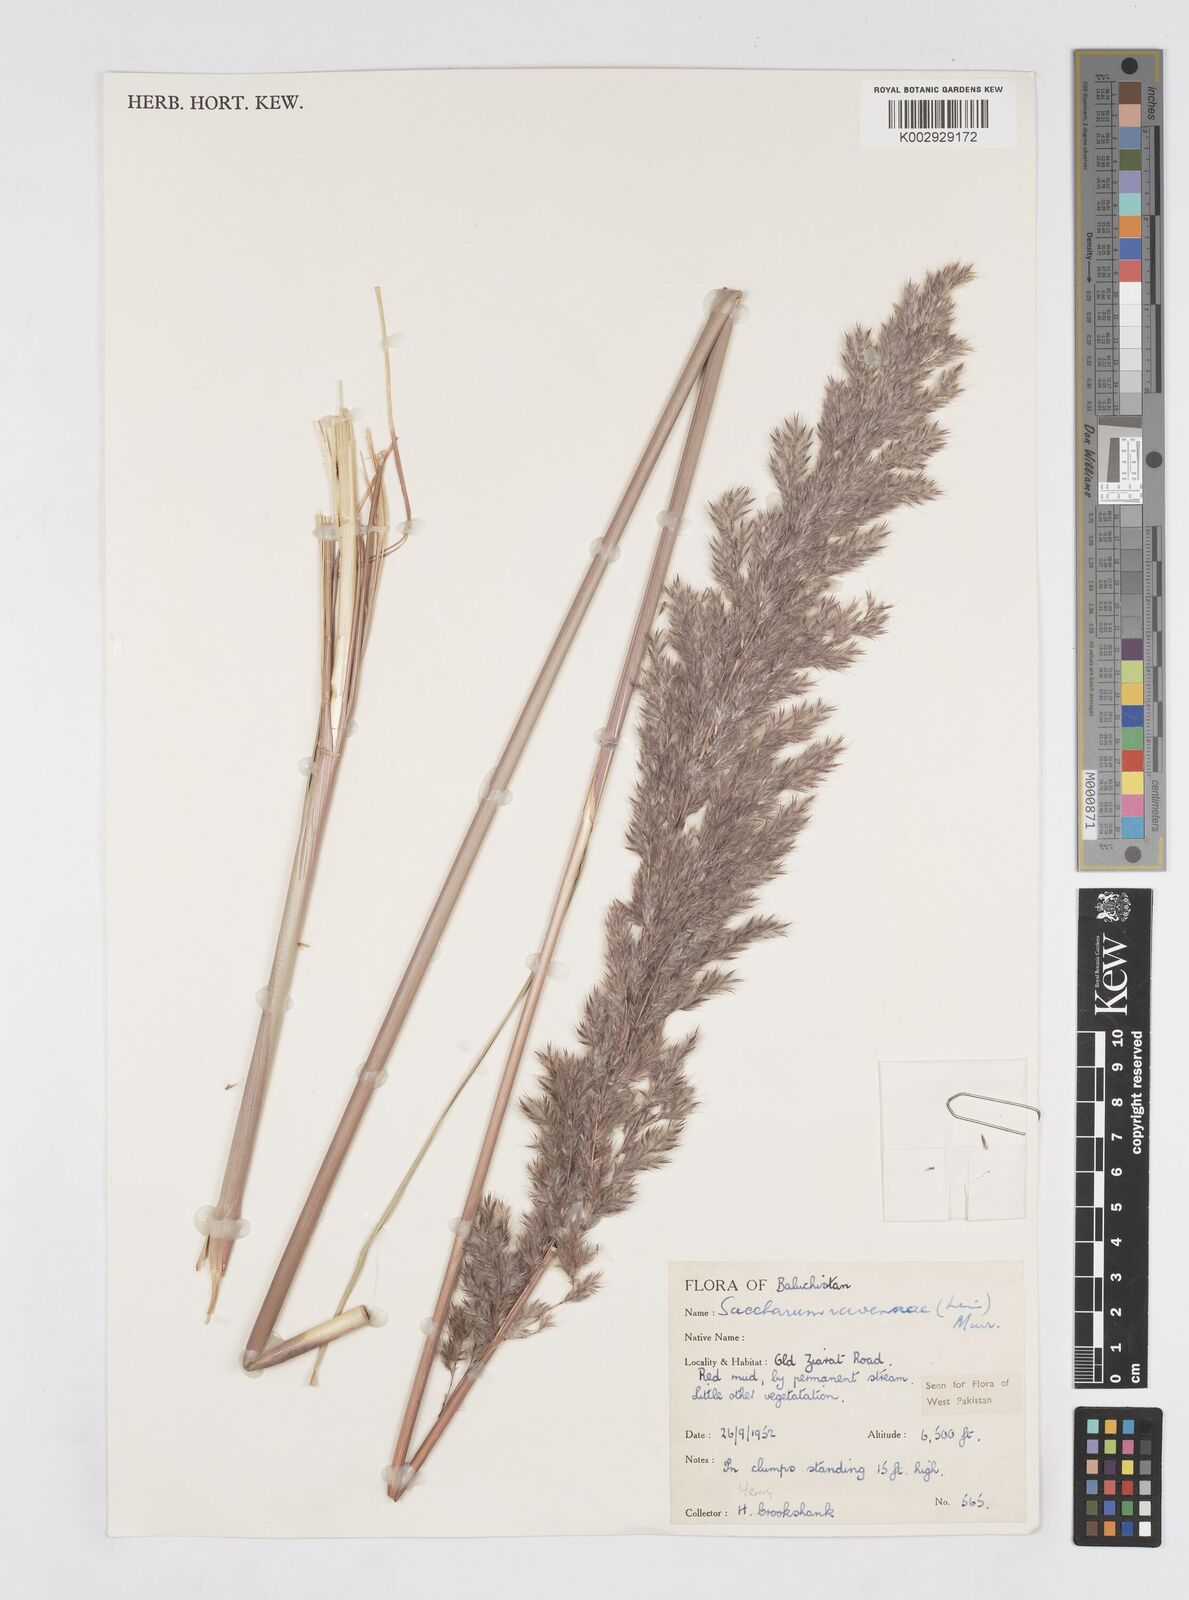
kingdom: Plantae
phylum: Tracheophyta
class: Liliopsida
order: Poales
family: Poaceae
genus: Tripidium
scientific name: Tripidium ravennae
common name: Ravenna grass
